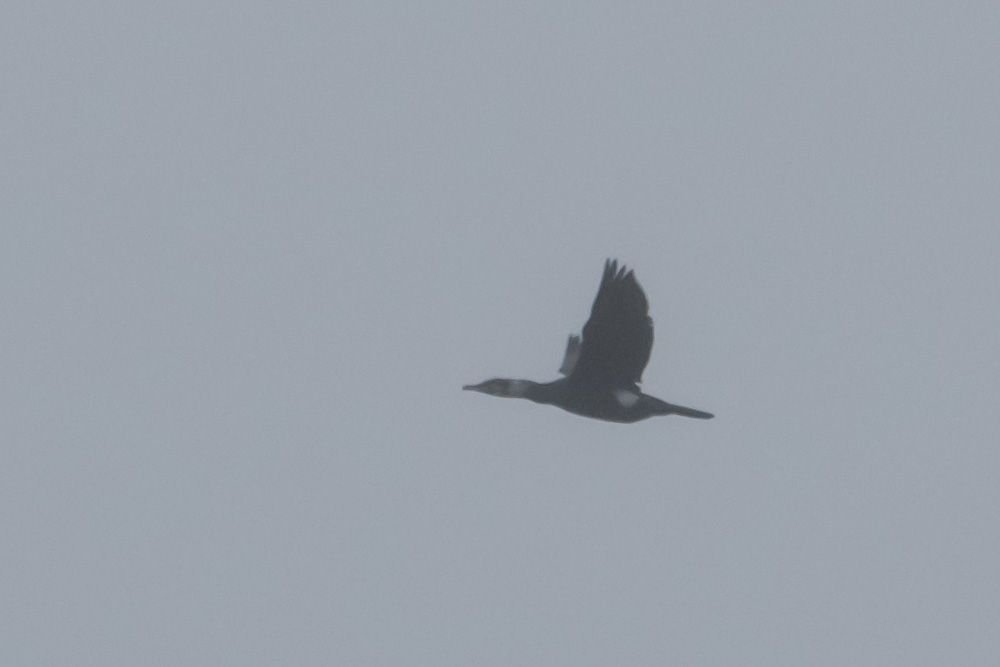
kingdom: Animalia
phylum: Chordata
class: Aves
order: Suliformes
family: Phalacrocoracidae
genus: Phalacrocorax
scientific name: Phalacrocorax carbo
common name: Great cormorant
